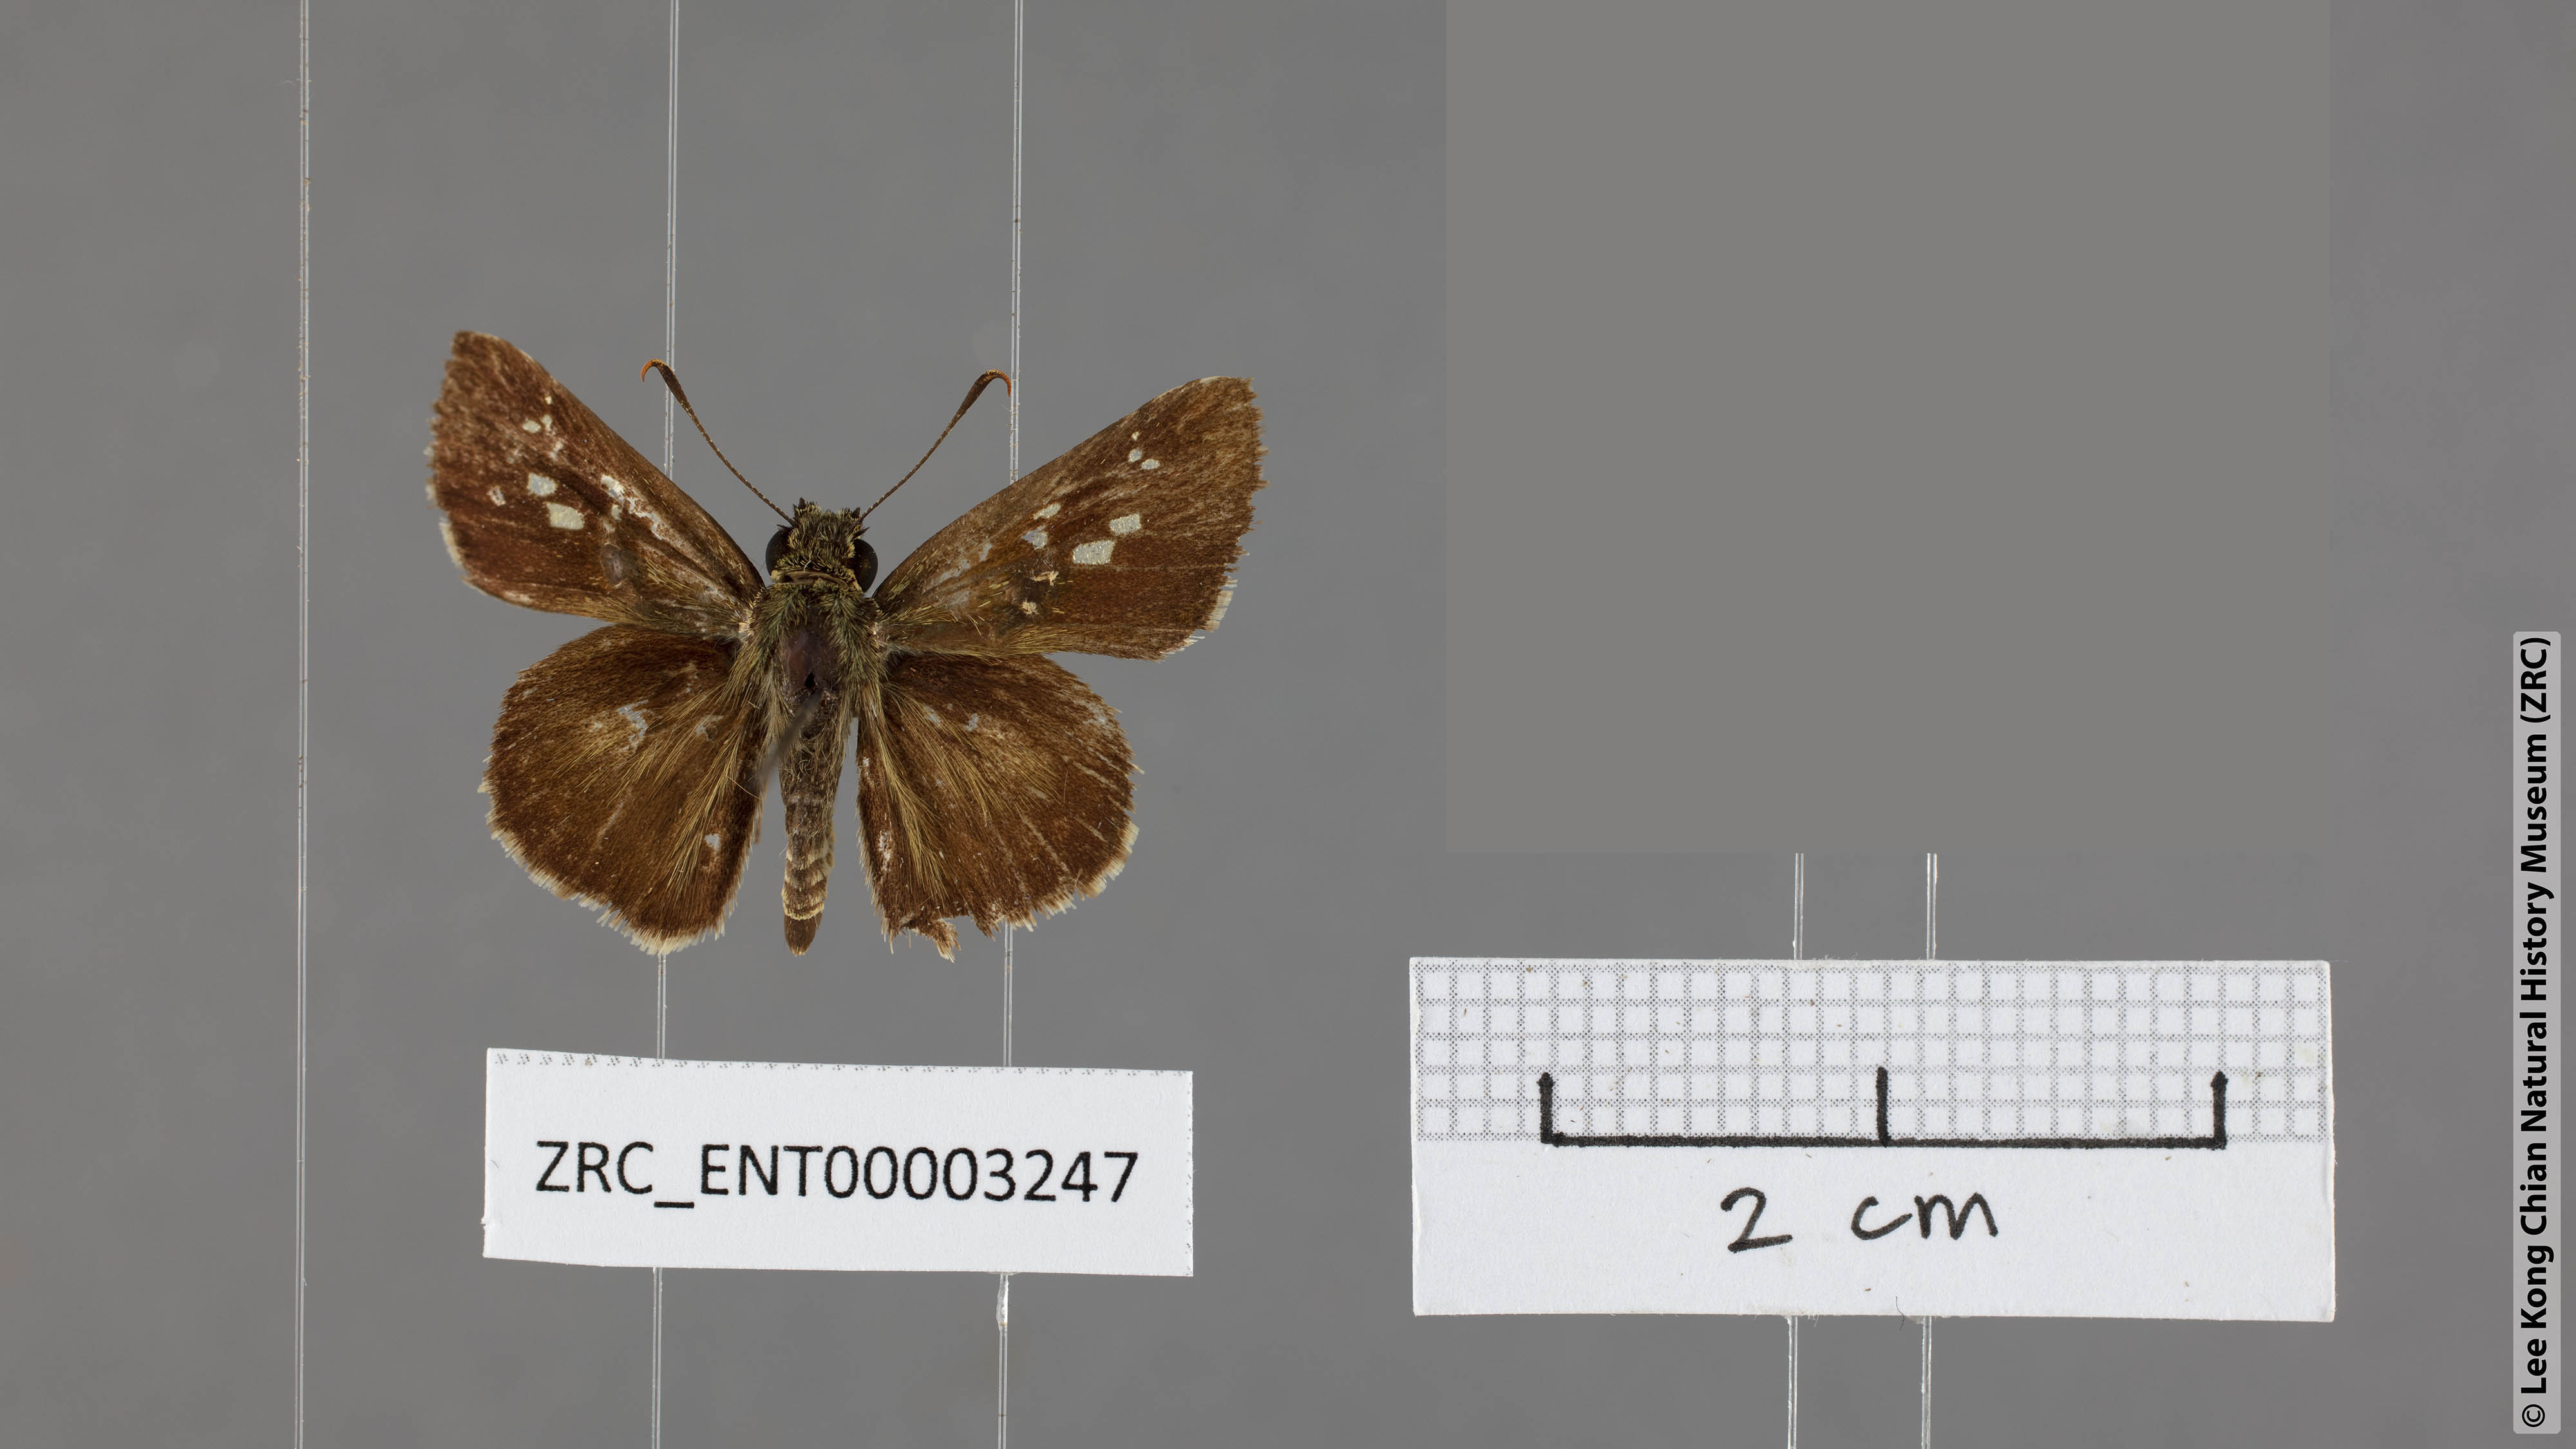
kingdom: Animalia
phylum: Arthropoda
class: Insecta
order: Lepidoptera
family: Hesperiidae
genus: Halpe
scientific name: Halpe porus
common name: Moore's ace
